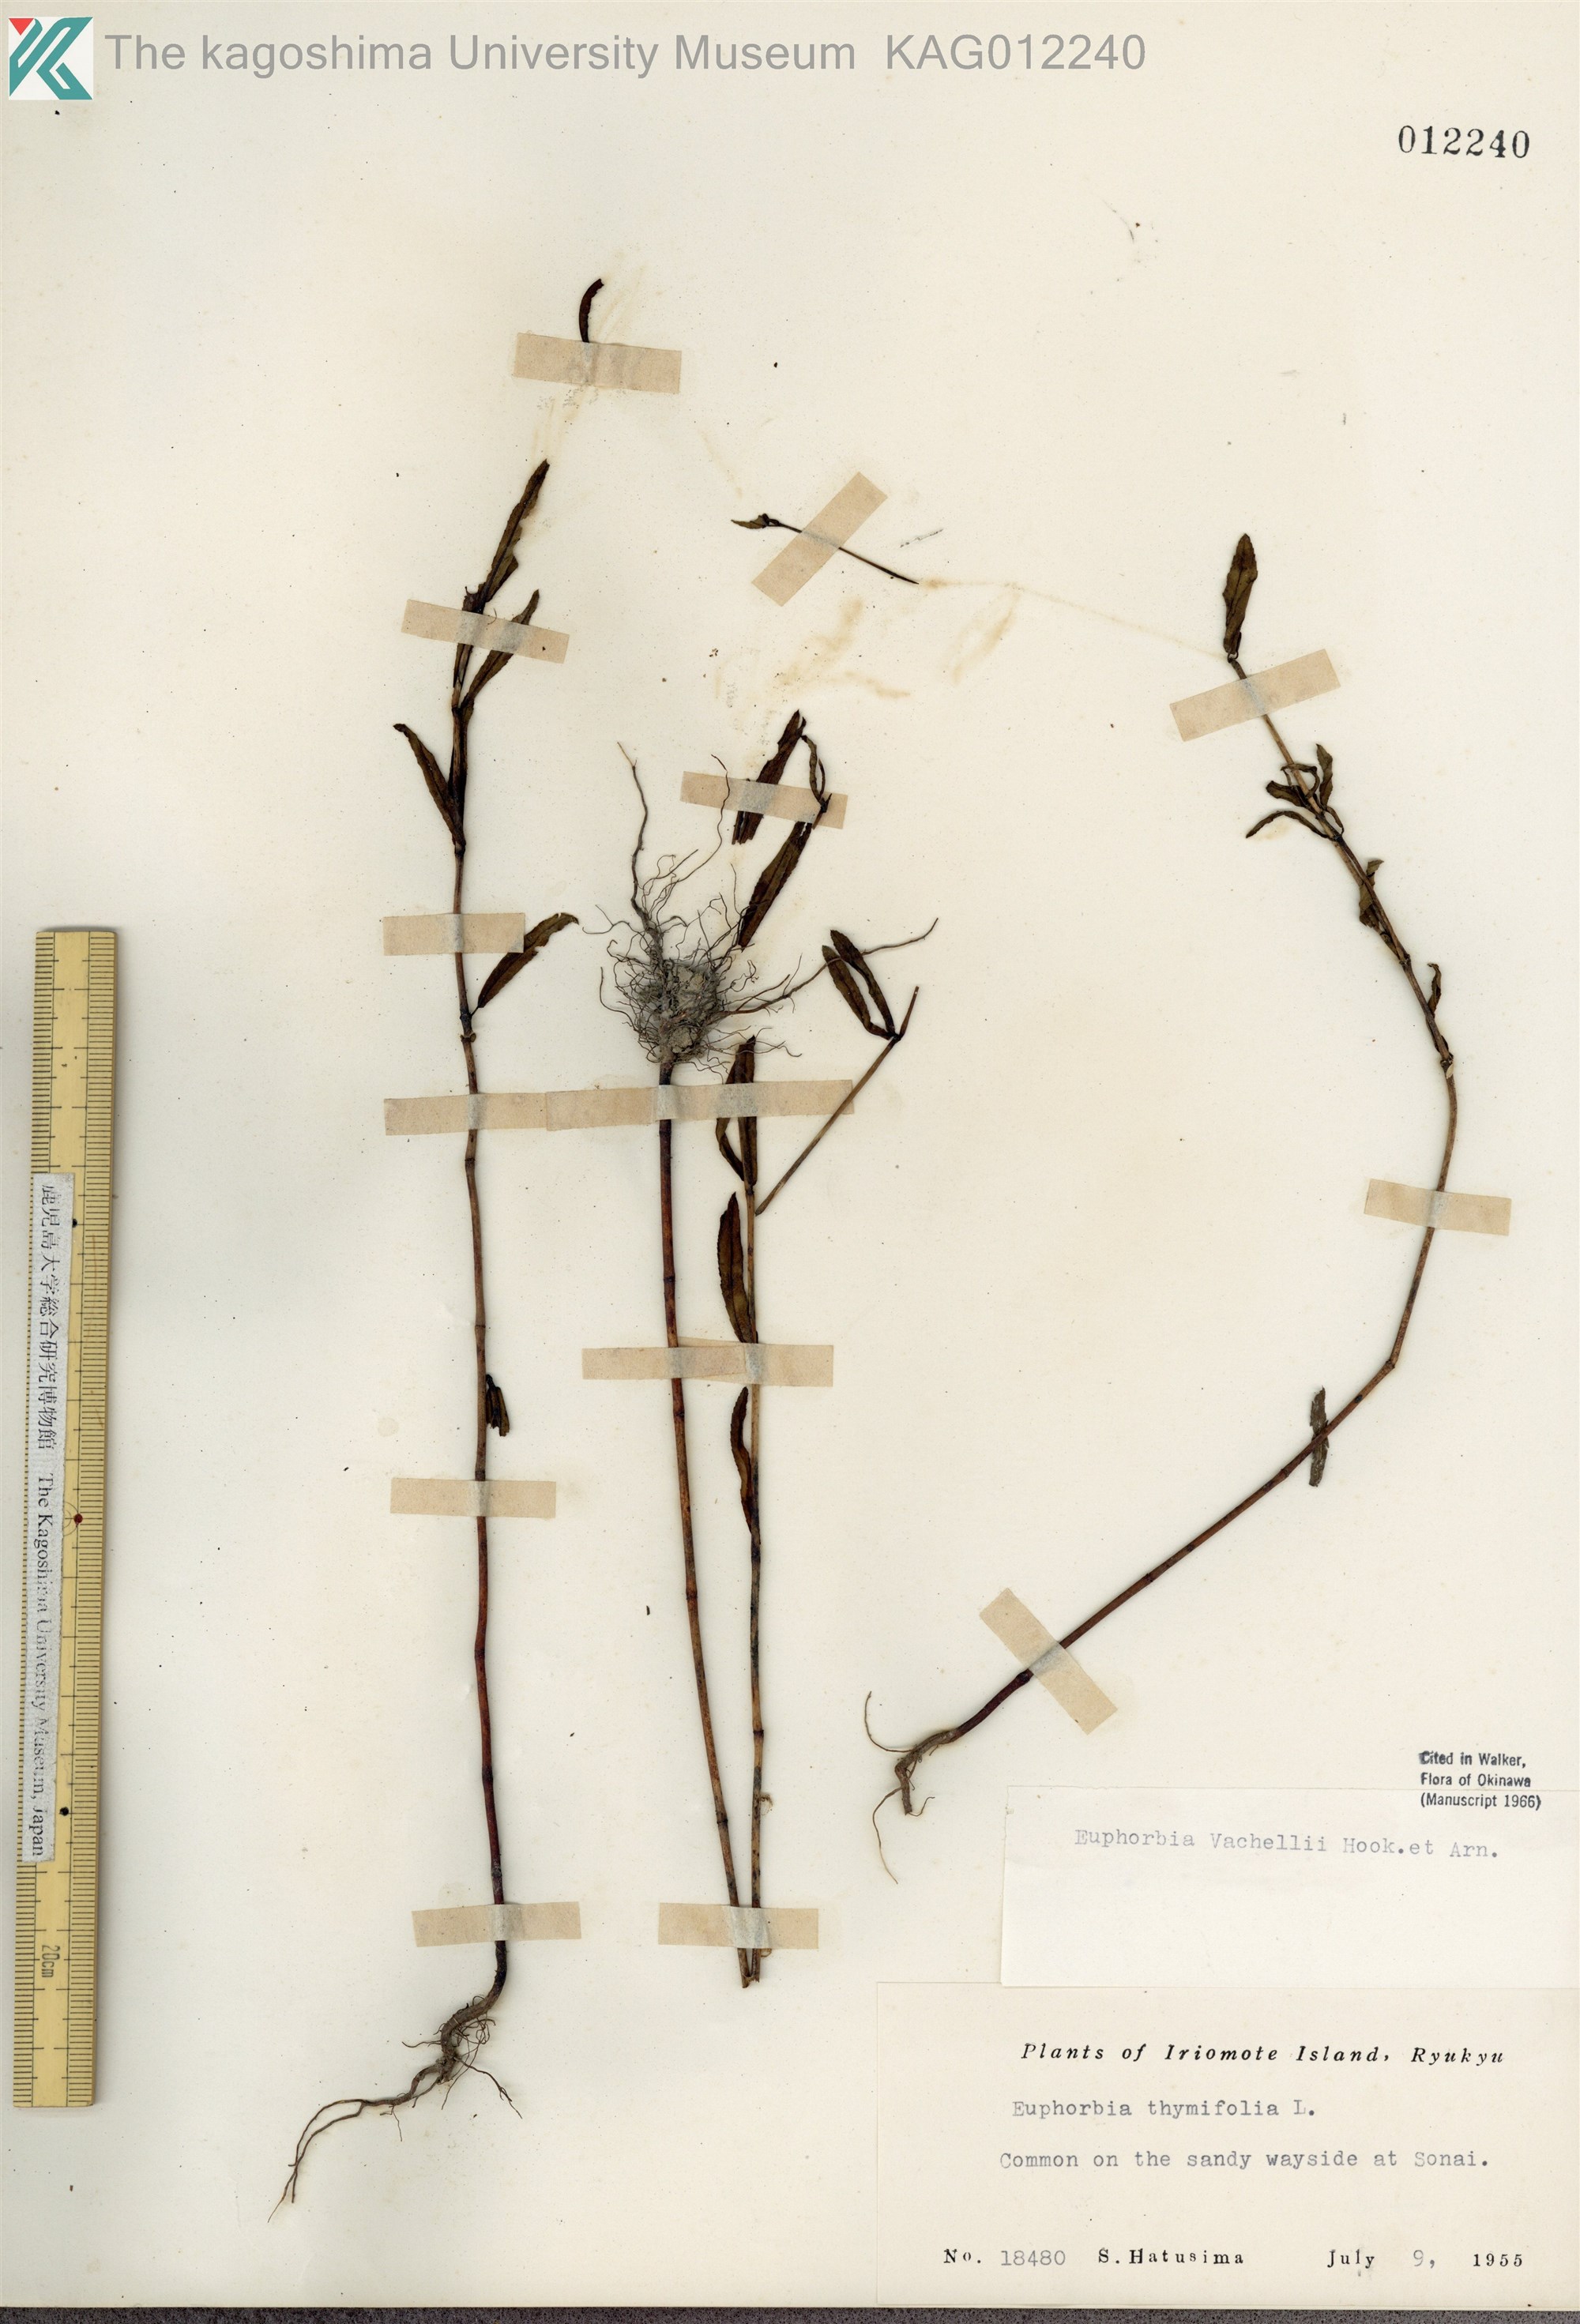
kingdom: Plantae
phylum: Tracheophyta
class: Magnoliopsida
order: Malpighiales
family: Euphorbiaceae
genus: Euphorbia
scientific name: Euphorbia bifida
